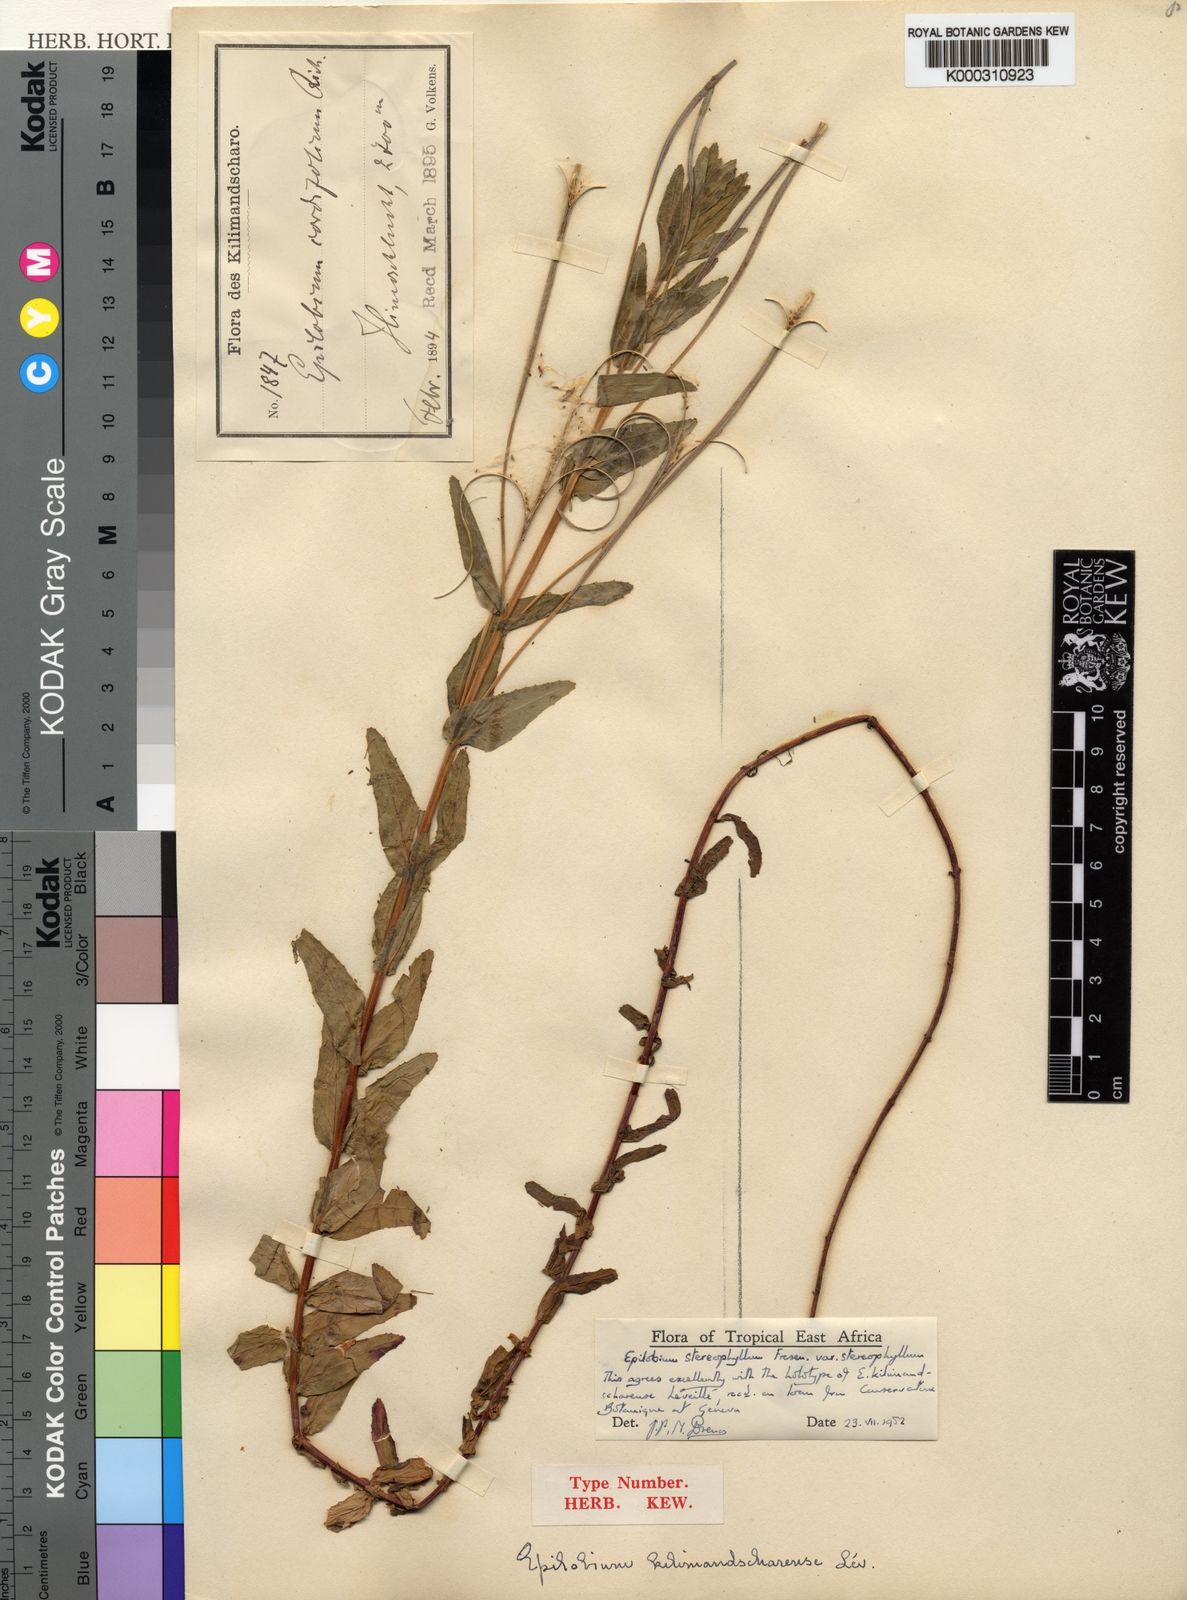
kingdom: Plantae
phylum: Tracheophyta
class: Magnoliopsida
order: Myrtales
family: Onagraceae
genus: Epilobium
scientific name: Epilobium stereophyllum
